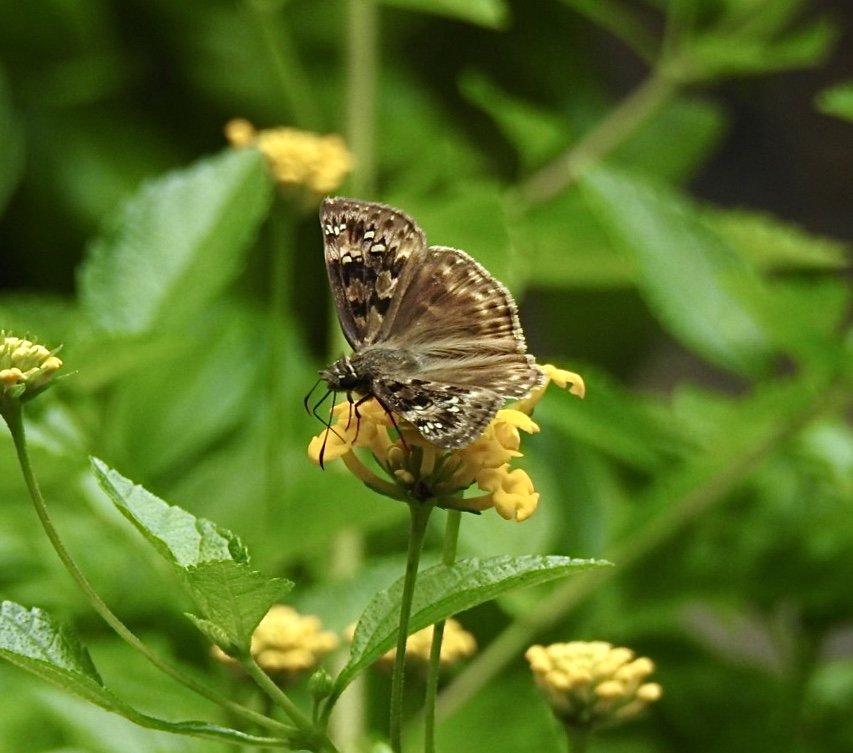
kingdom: Animalia
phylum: Arthropoda
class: Insecta
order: Lepidoptera
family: Hesperiidae
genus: Gesta
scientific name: Gesta
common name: Horace's Duskywing
